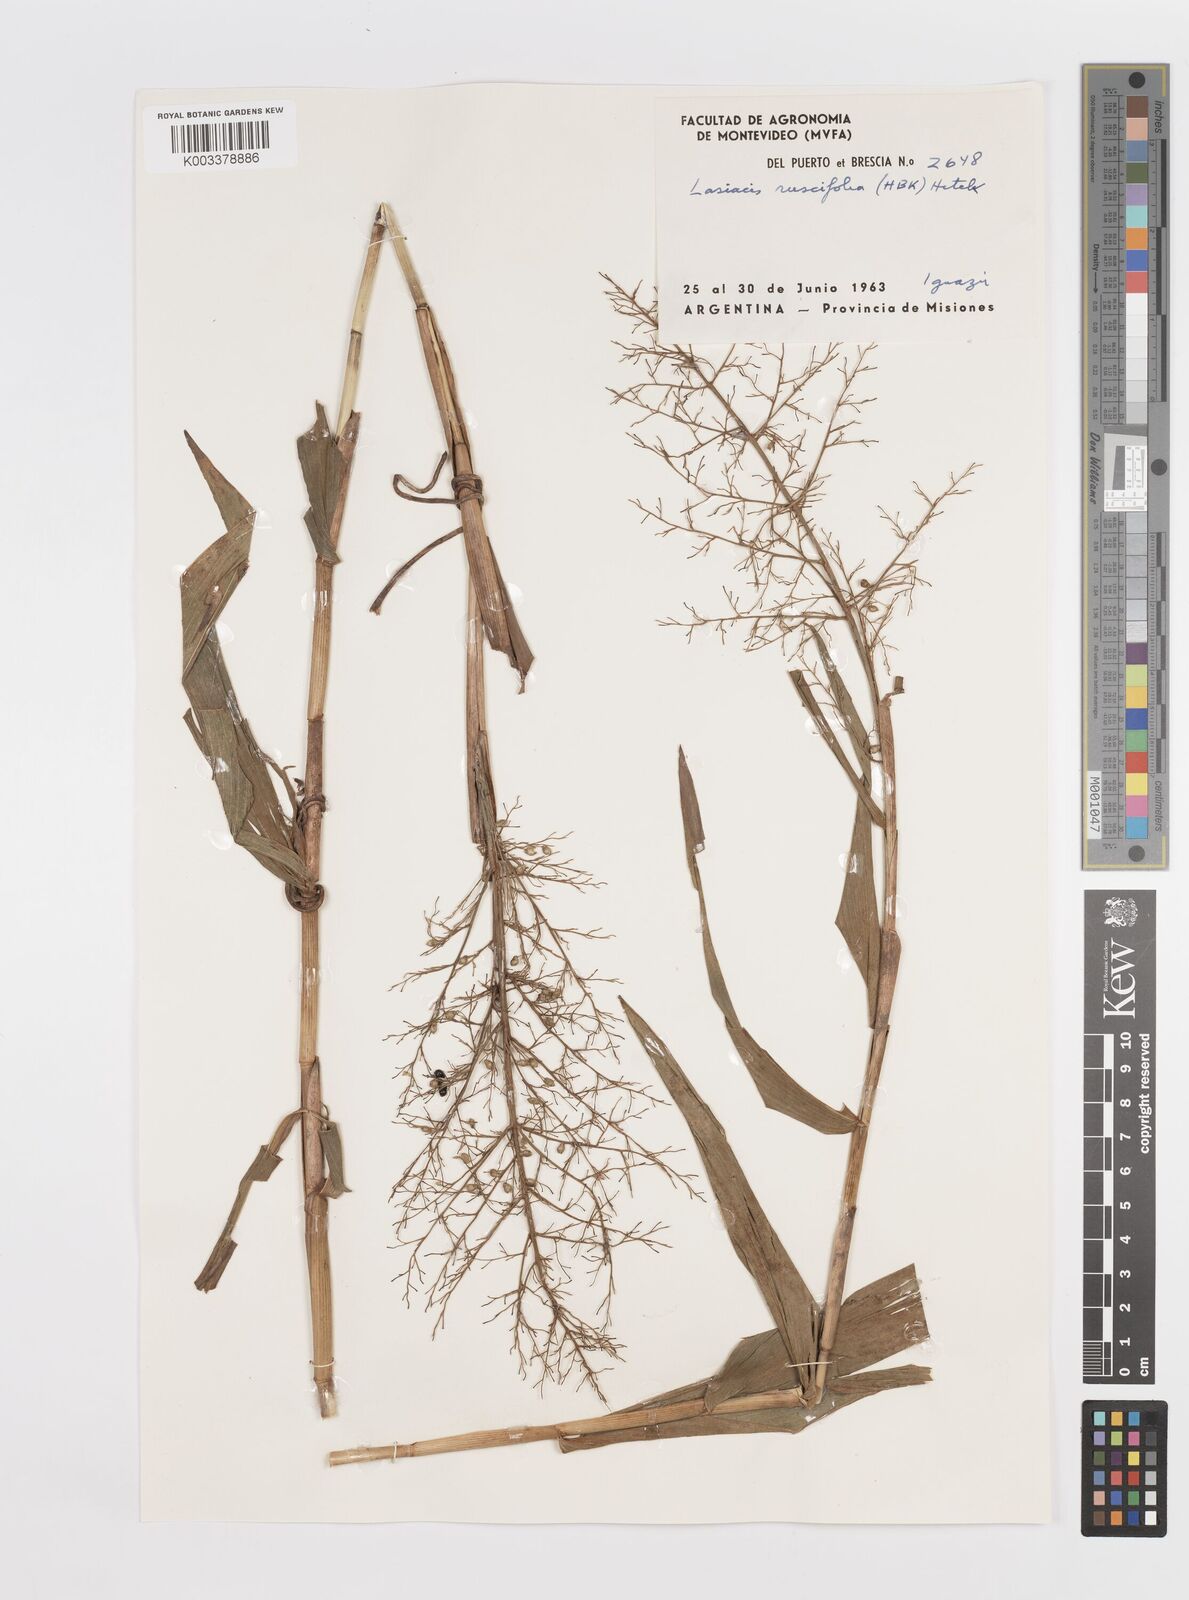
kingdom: Plantae
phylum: Tracheophyta
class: Liliopsida
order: Poales
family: Poaceae
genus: Lasiacis
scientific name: Lasiacis maculata
